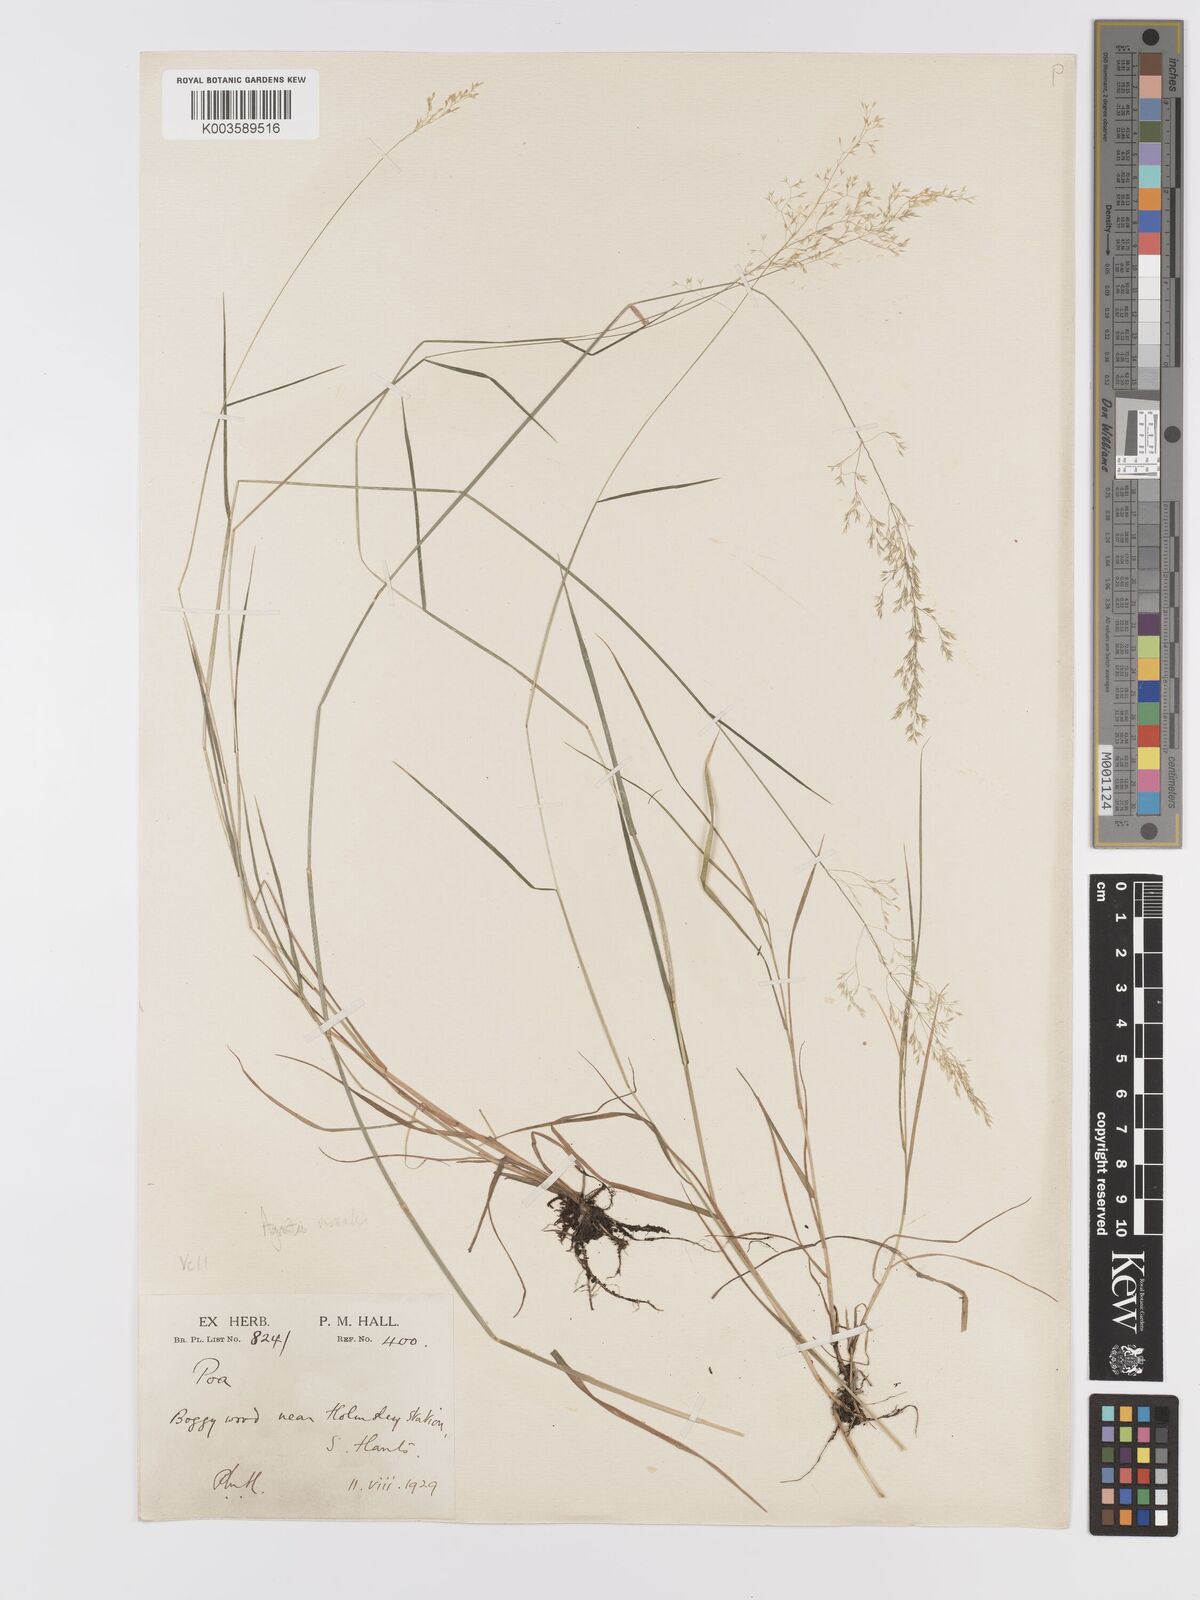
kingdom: Plantae
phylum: Tracheophyta
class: Liliopsida
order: Poales
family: Poaceae
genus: Agrostis
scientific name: Agrostis
